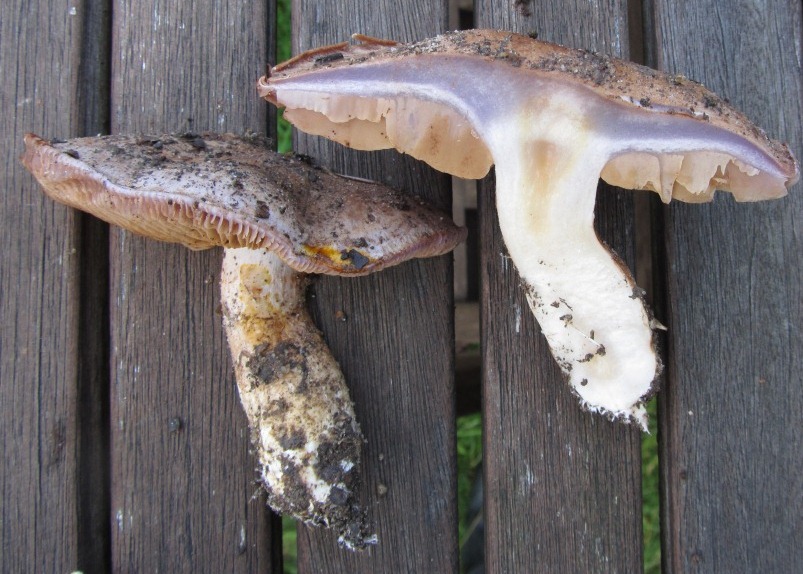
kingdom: Fungi
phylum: Basidiomycota
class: Agaricomycetes
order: Agaricales
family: Cortinariaceae
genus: Cortinarius
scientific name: Cortinarius largus
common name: violetrandet slørhat
